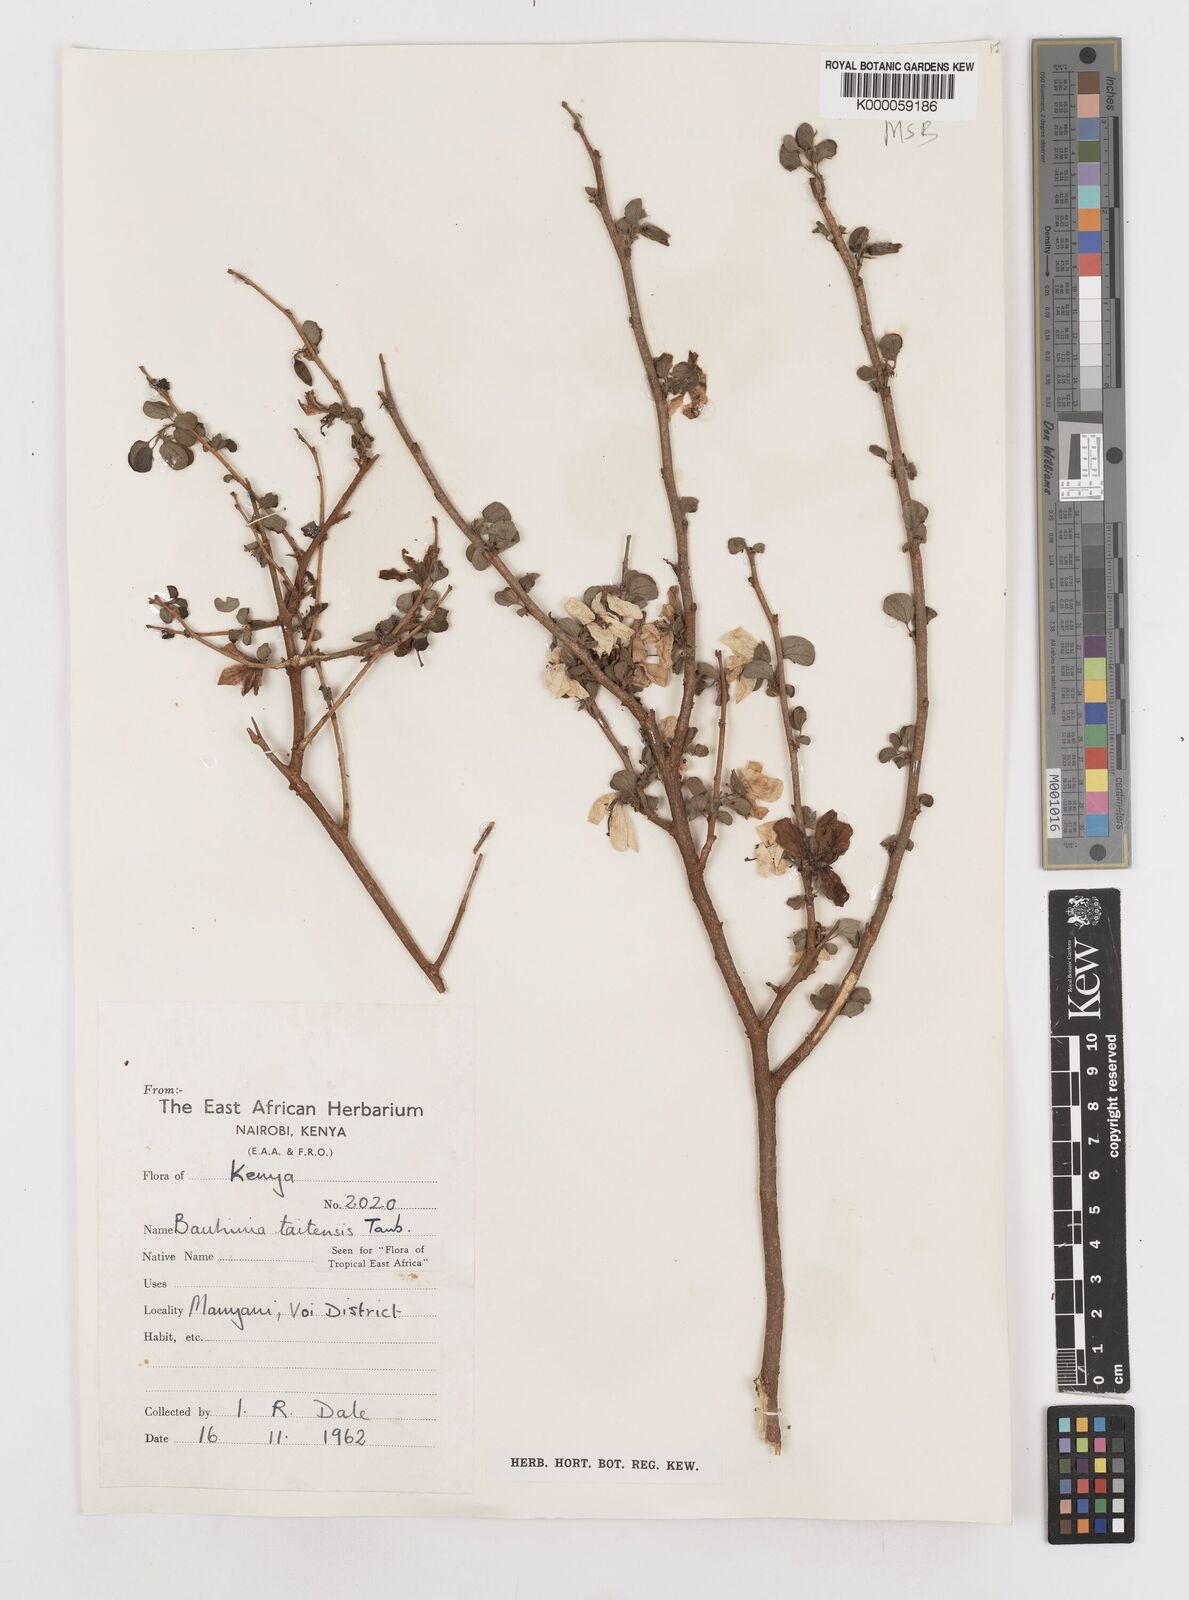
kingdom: Plantae
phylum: Tracheophyta
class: Magnoliopsida
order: Fabales
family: Fabaceae
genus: Bauhinia
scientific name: Bauhinia taitensis
